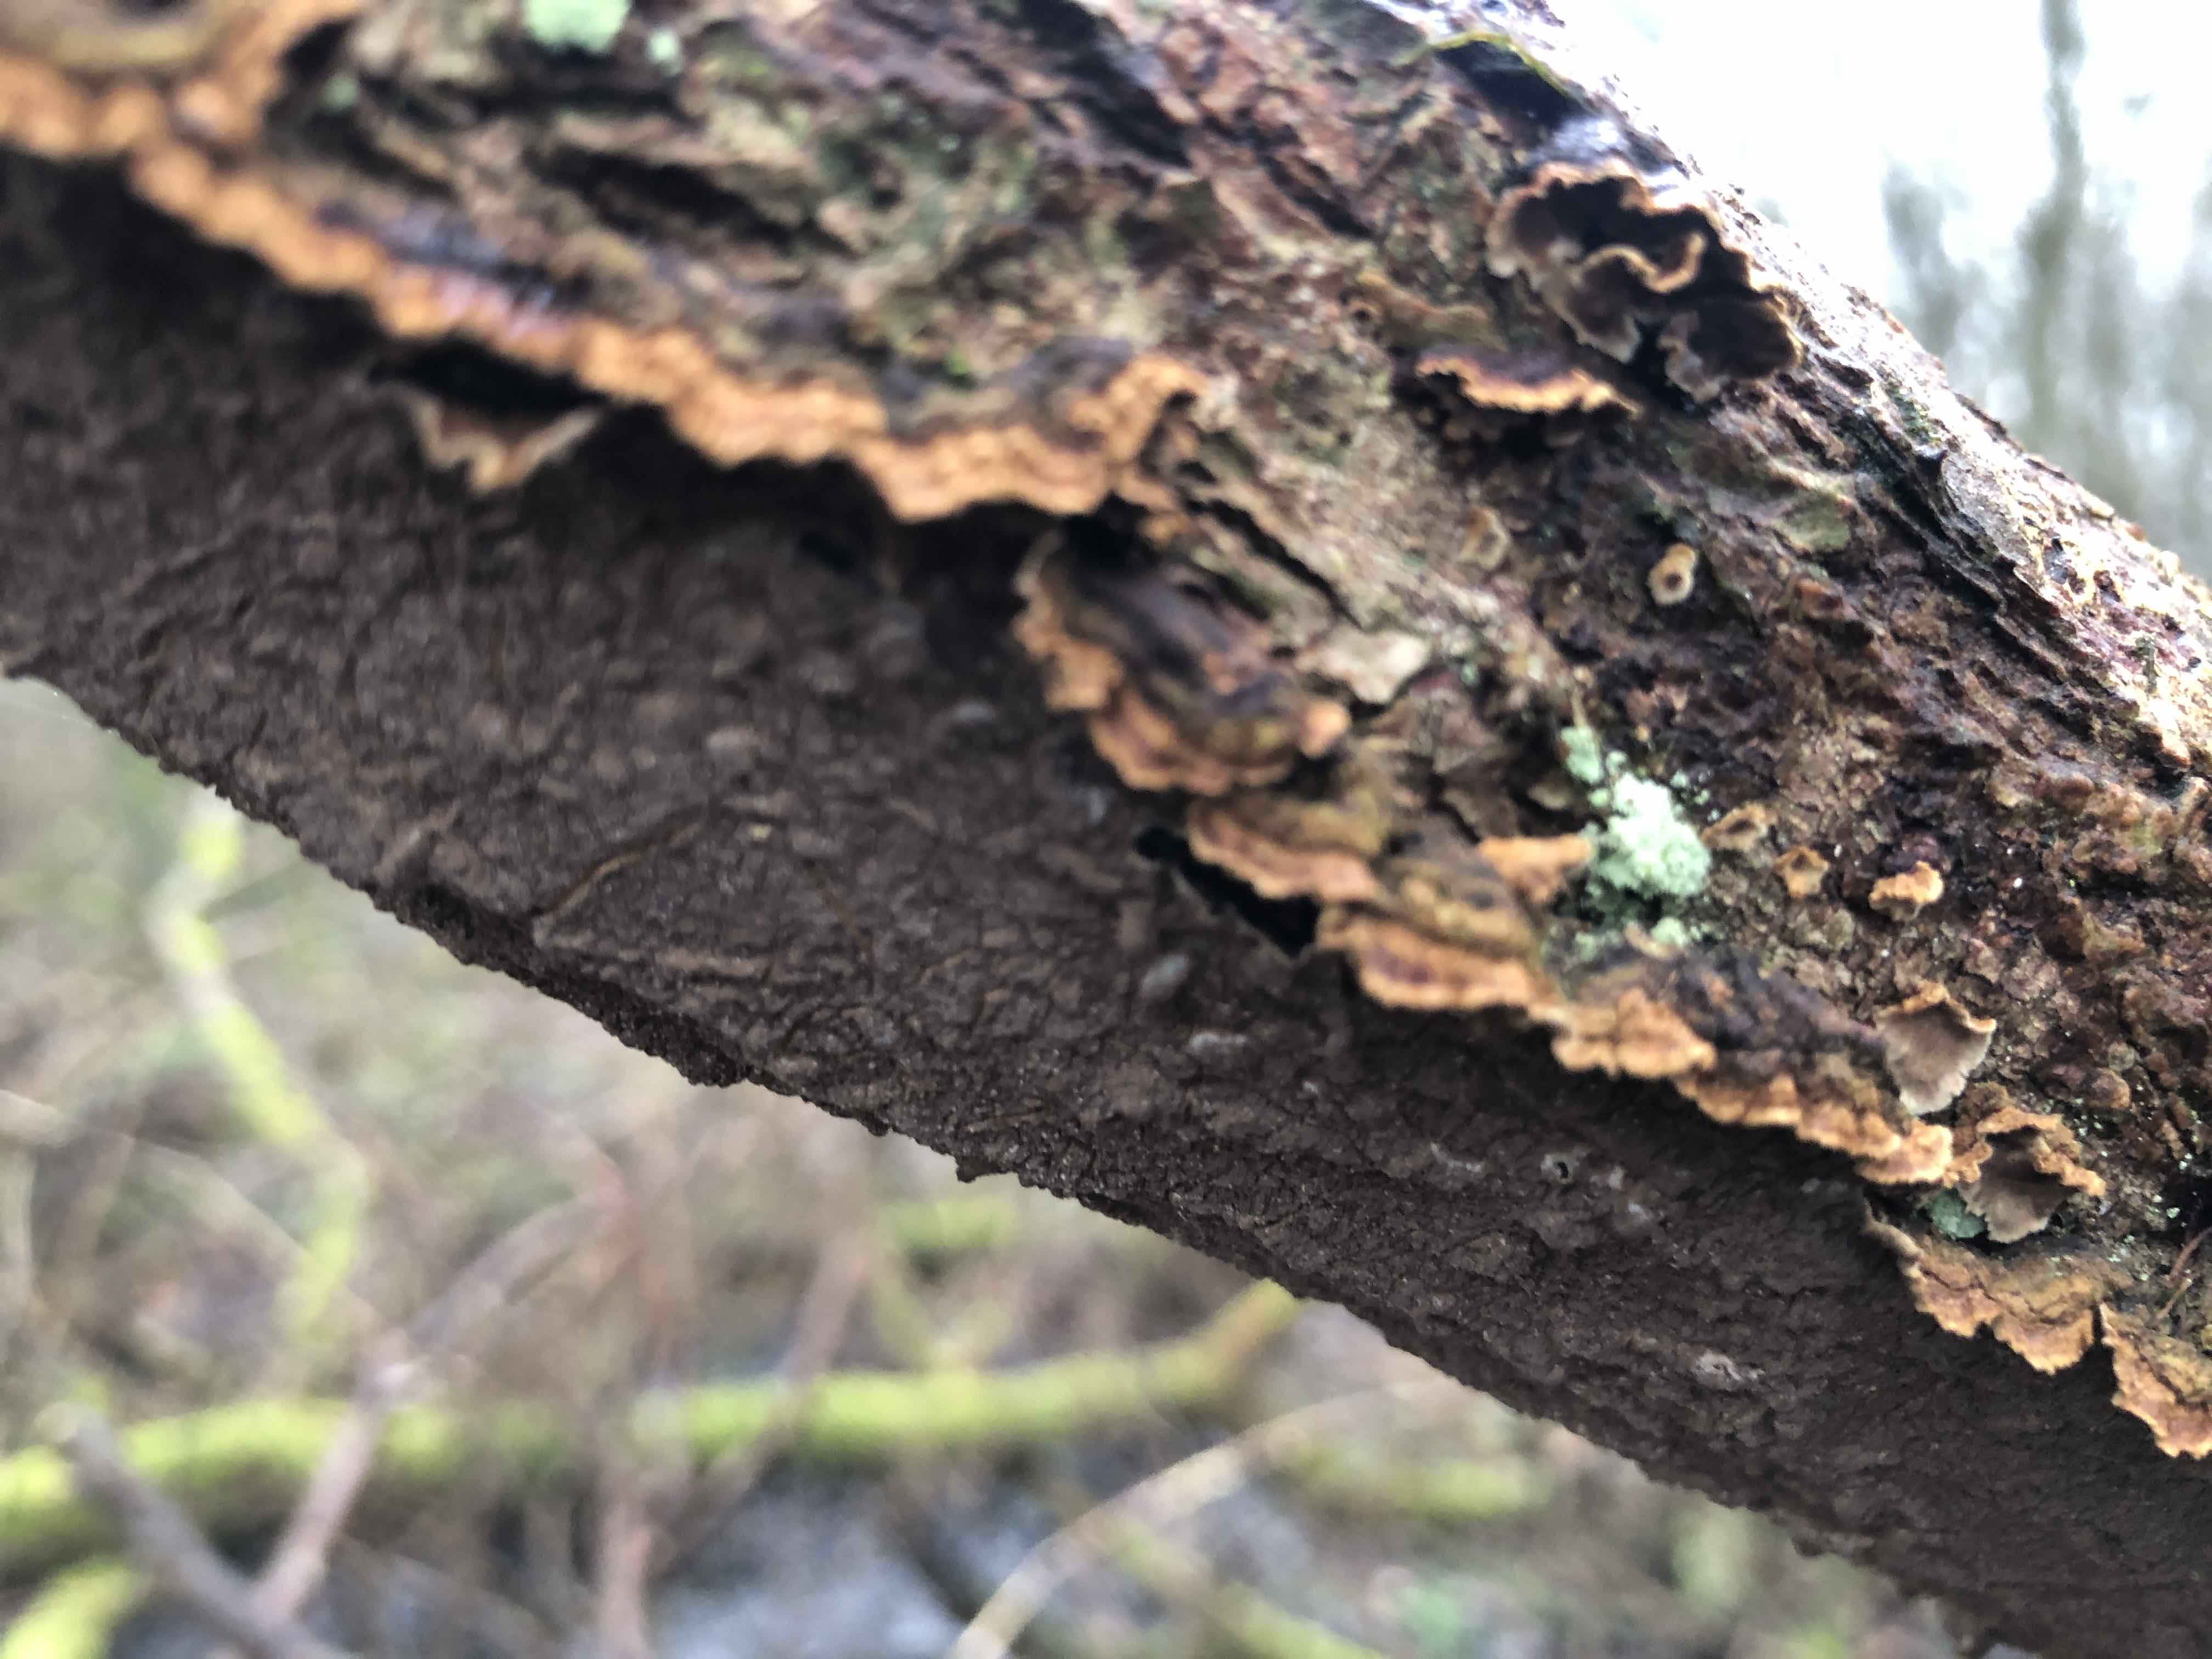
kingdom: Fungi
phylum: Basidiomycota
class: Agaricomycetes
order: Hymenochaetales
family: Hymenochaetaceae
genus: Hydnoporia
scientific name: Hydnoporia tabacina
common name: tobaksbrun ruslædersvamp
